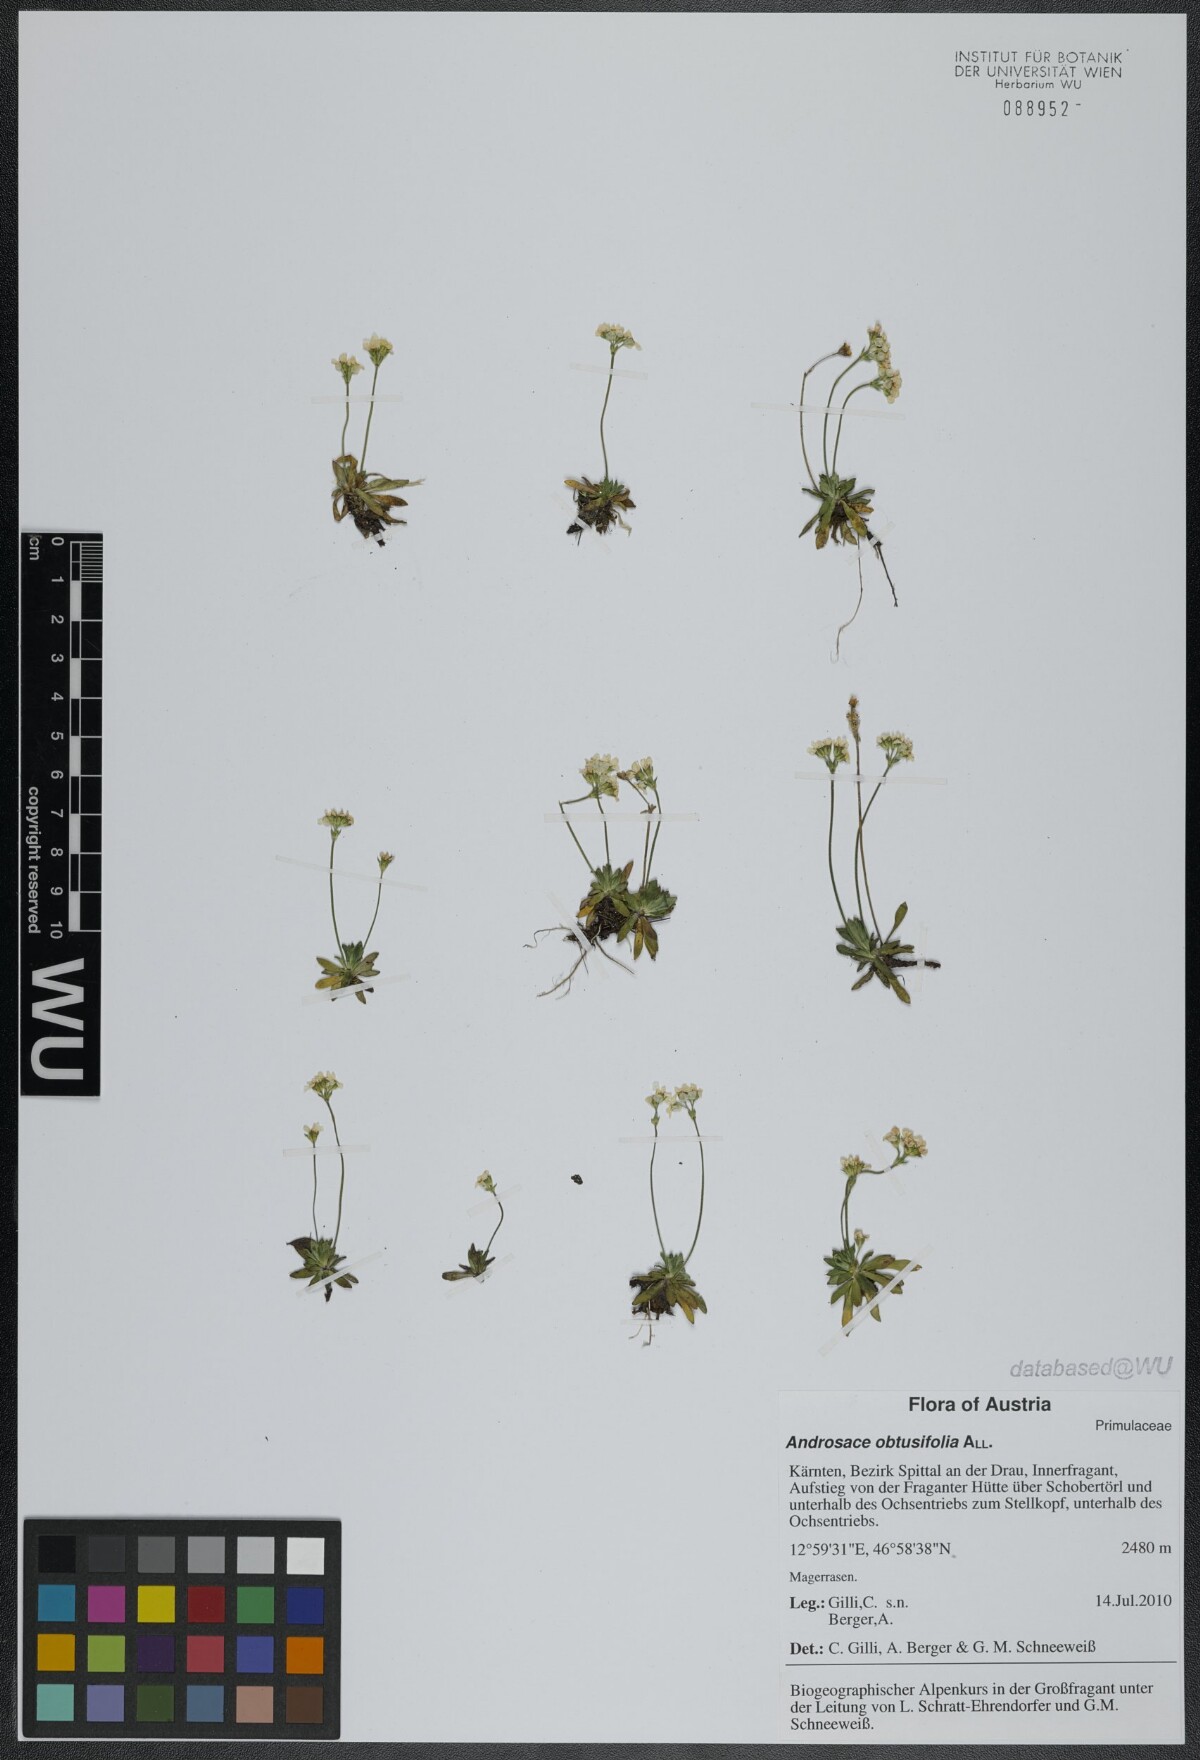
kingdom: Plantae
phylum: Tracheophyta
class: Magnoliopsida
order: Ericales
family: Primulaceae
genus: Androsace
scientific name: Androsace obtusifolia
